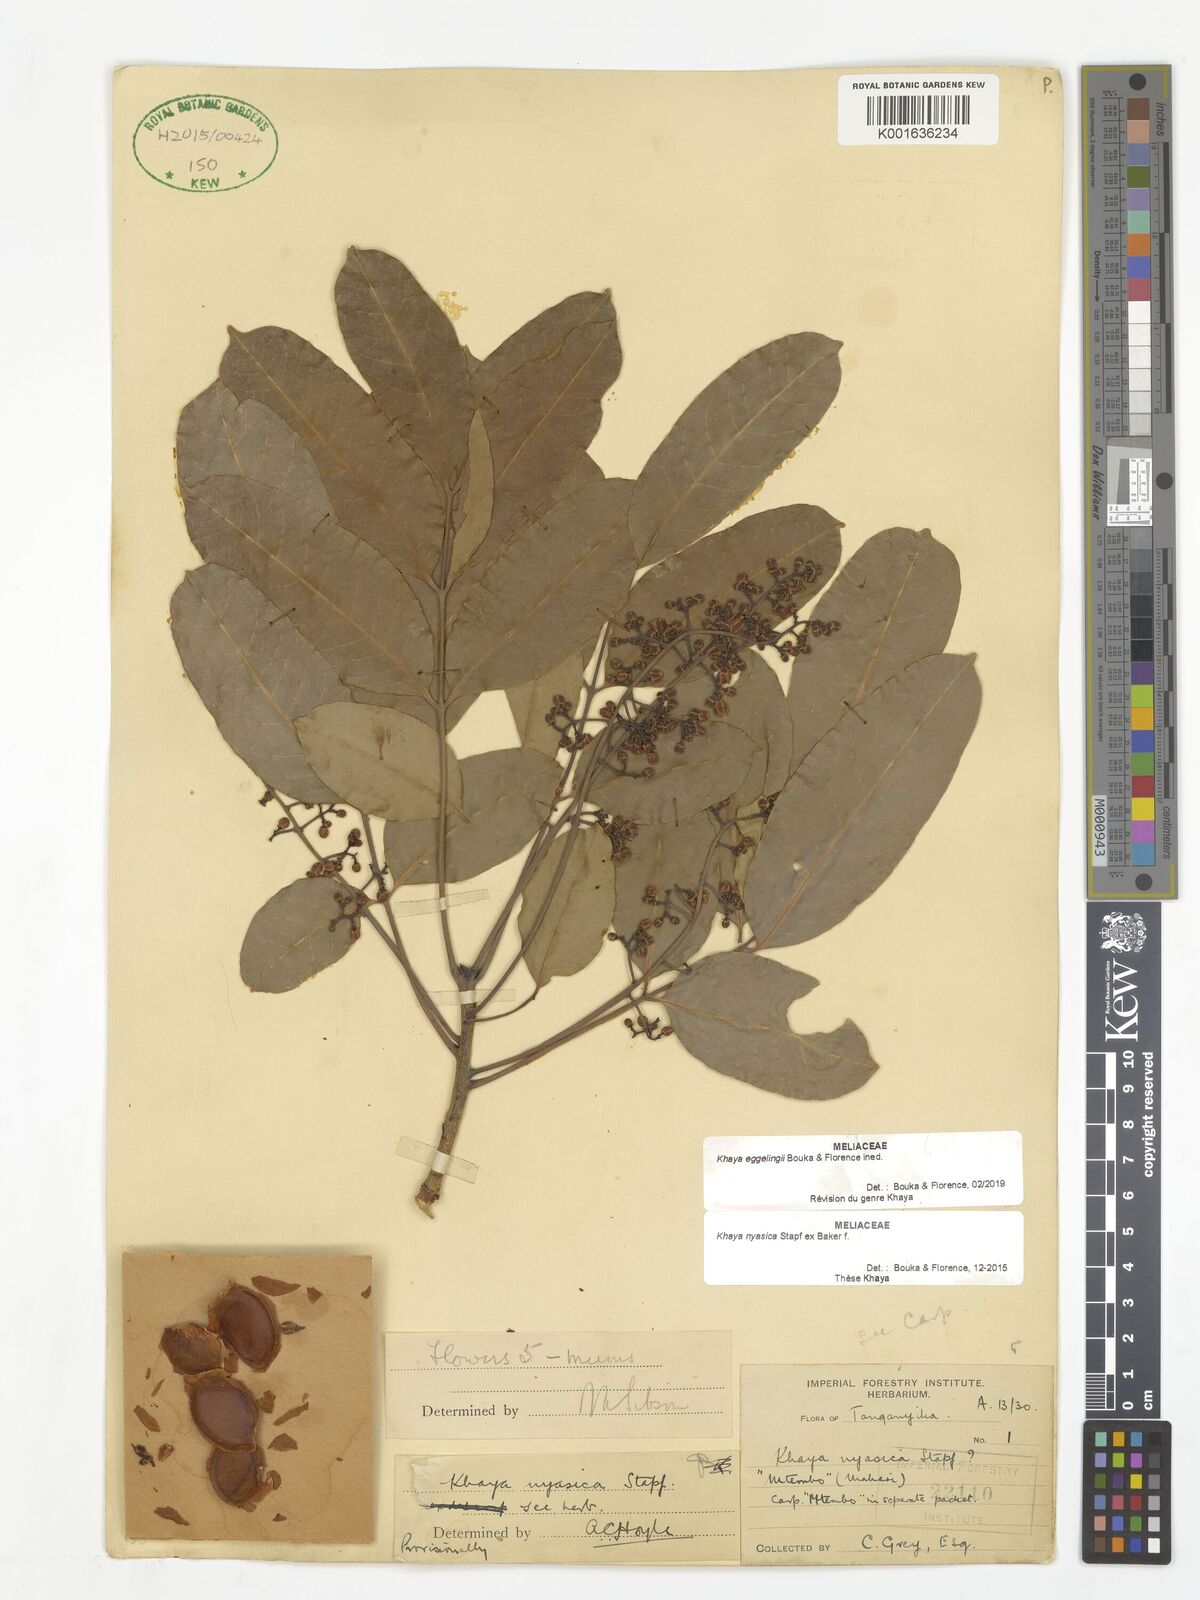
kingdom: Plantae
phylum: Tracheophyta
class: Magnoliopsida
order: Sapindales
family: Meliaceae
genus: Khaya
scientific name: Khaya
